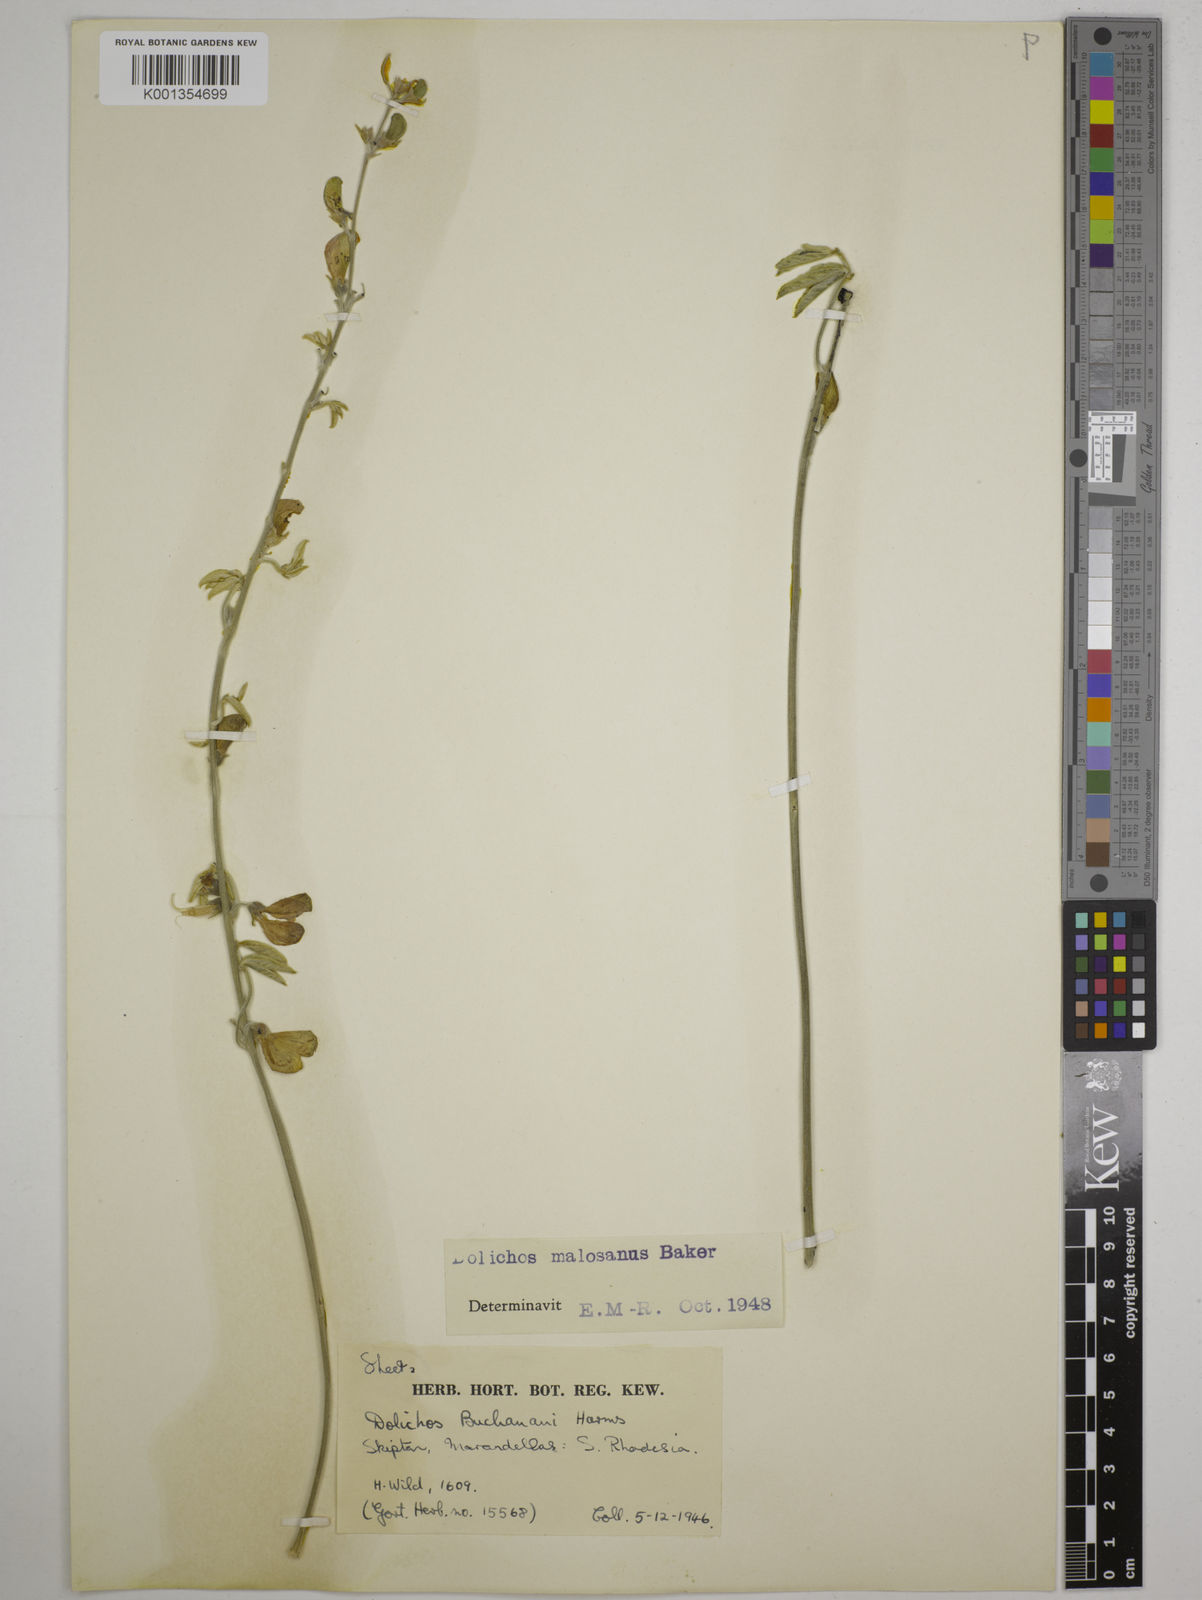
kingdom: Plantae
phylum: Tracheophyta
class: Magnoliopsida
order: Fabales
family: Fabaceae
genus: Dolichos
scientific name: Dolichos kilimandscharicus
